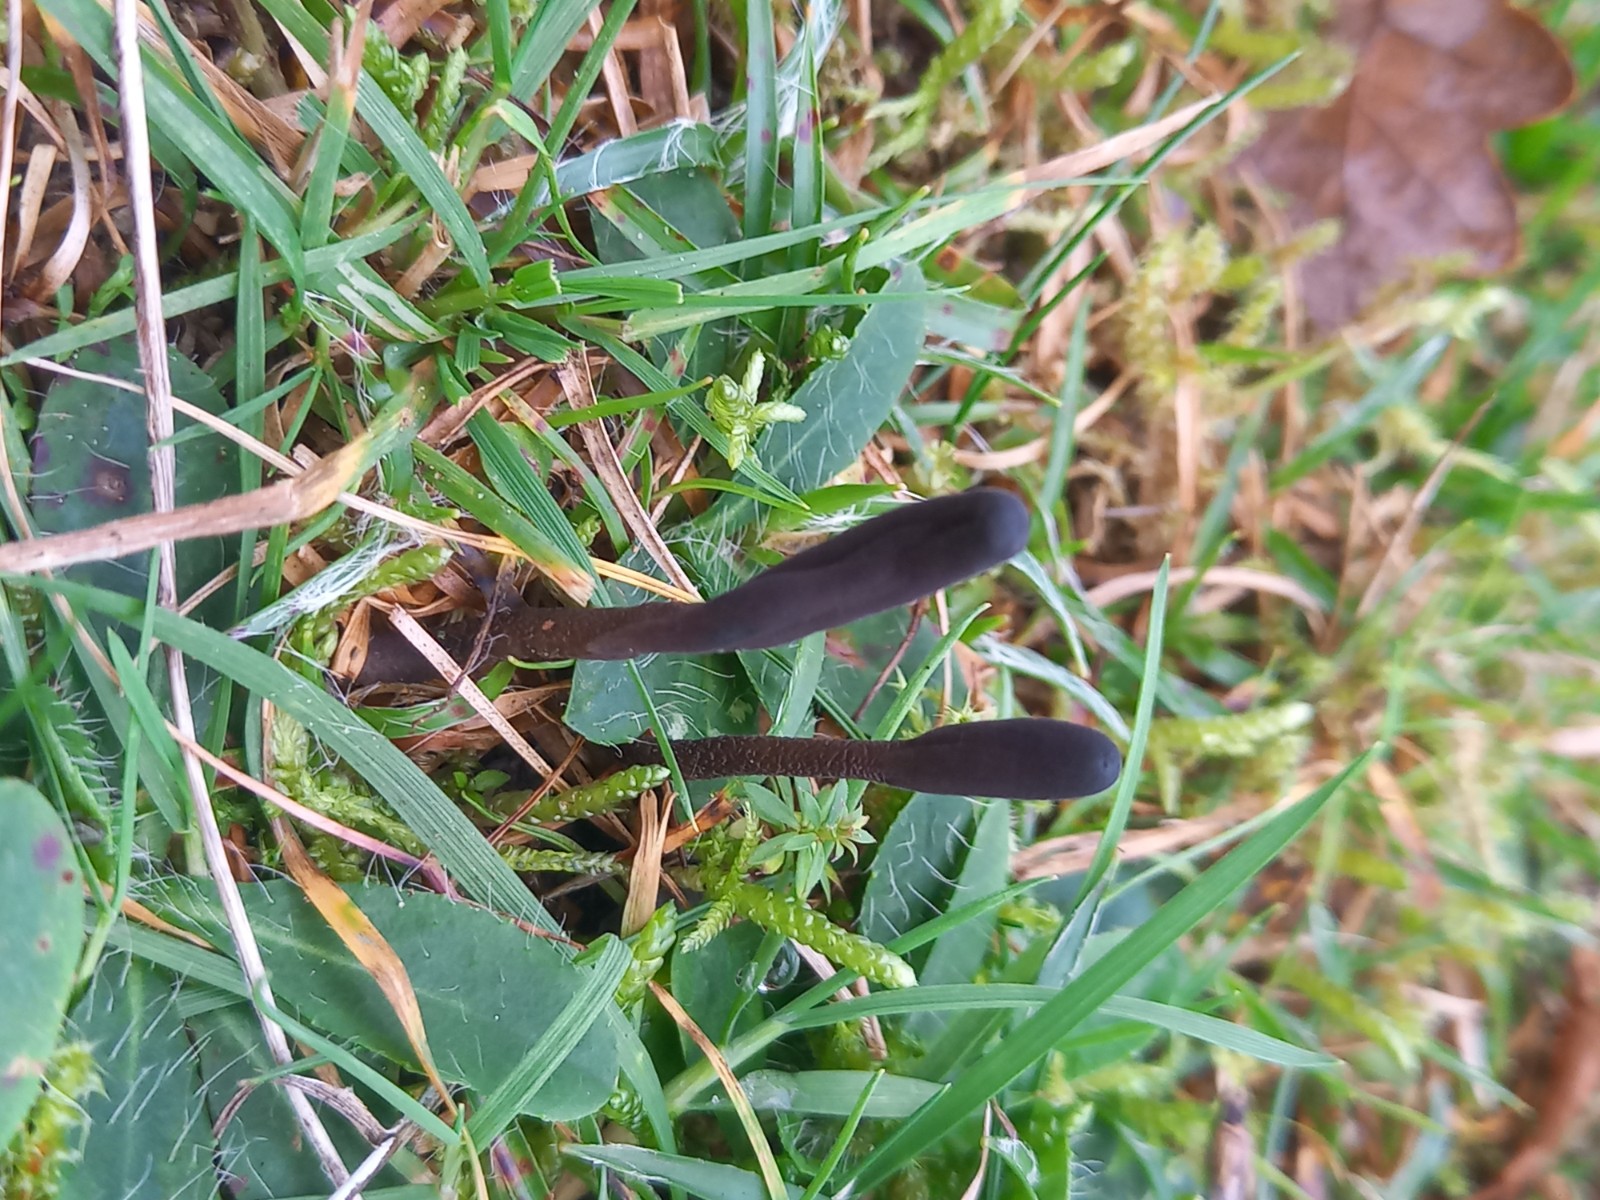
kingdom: Fungi
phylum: Ascomycota
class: Geoglossomycetes
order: Geoglossales
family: Geoglossaceae
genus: Geoglossum
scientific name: Geoglossum
